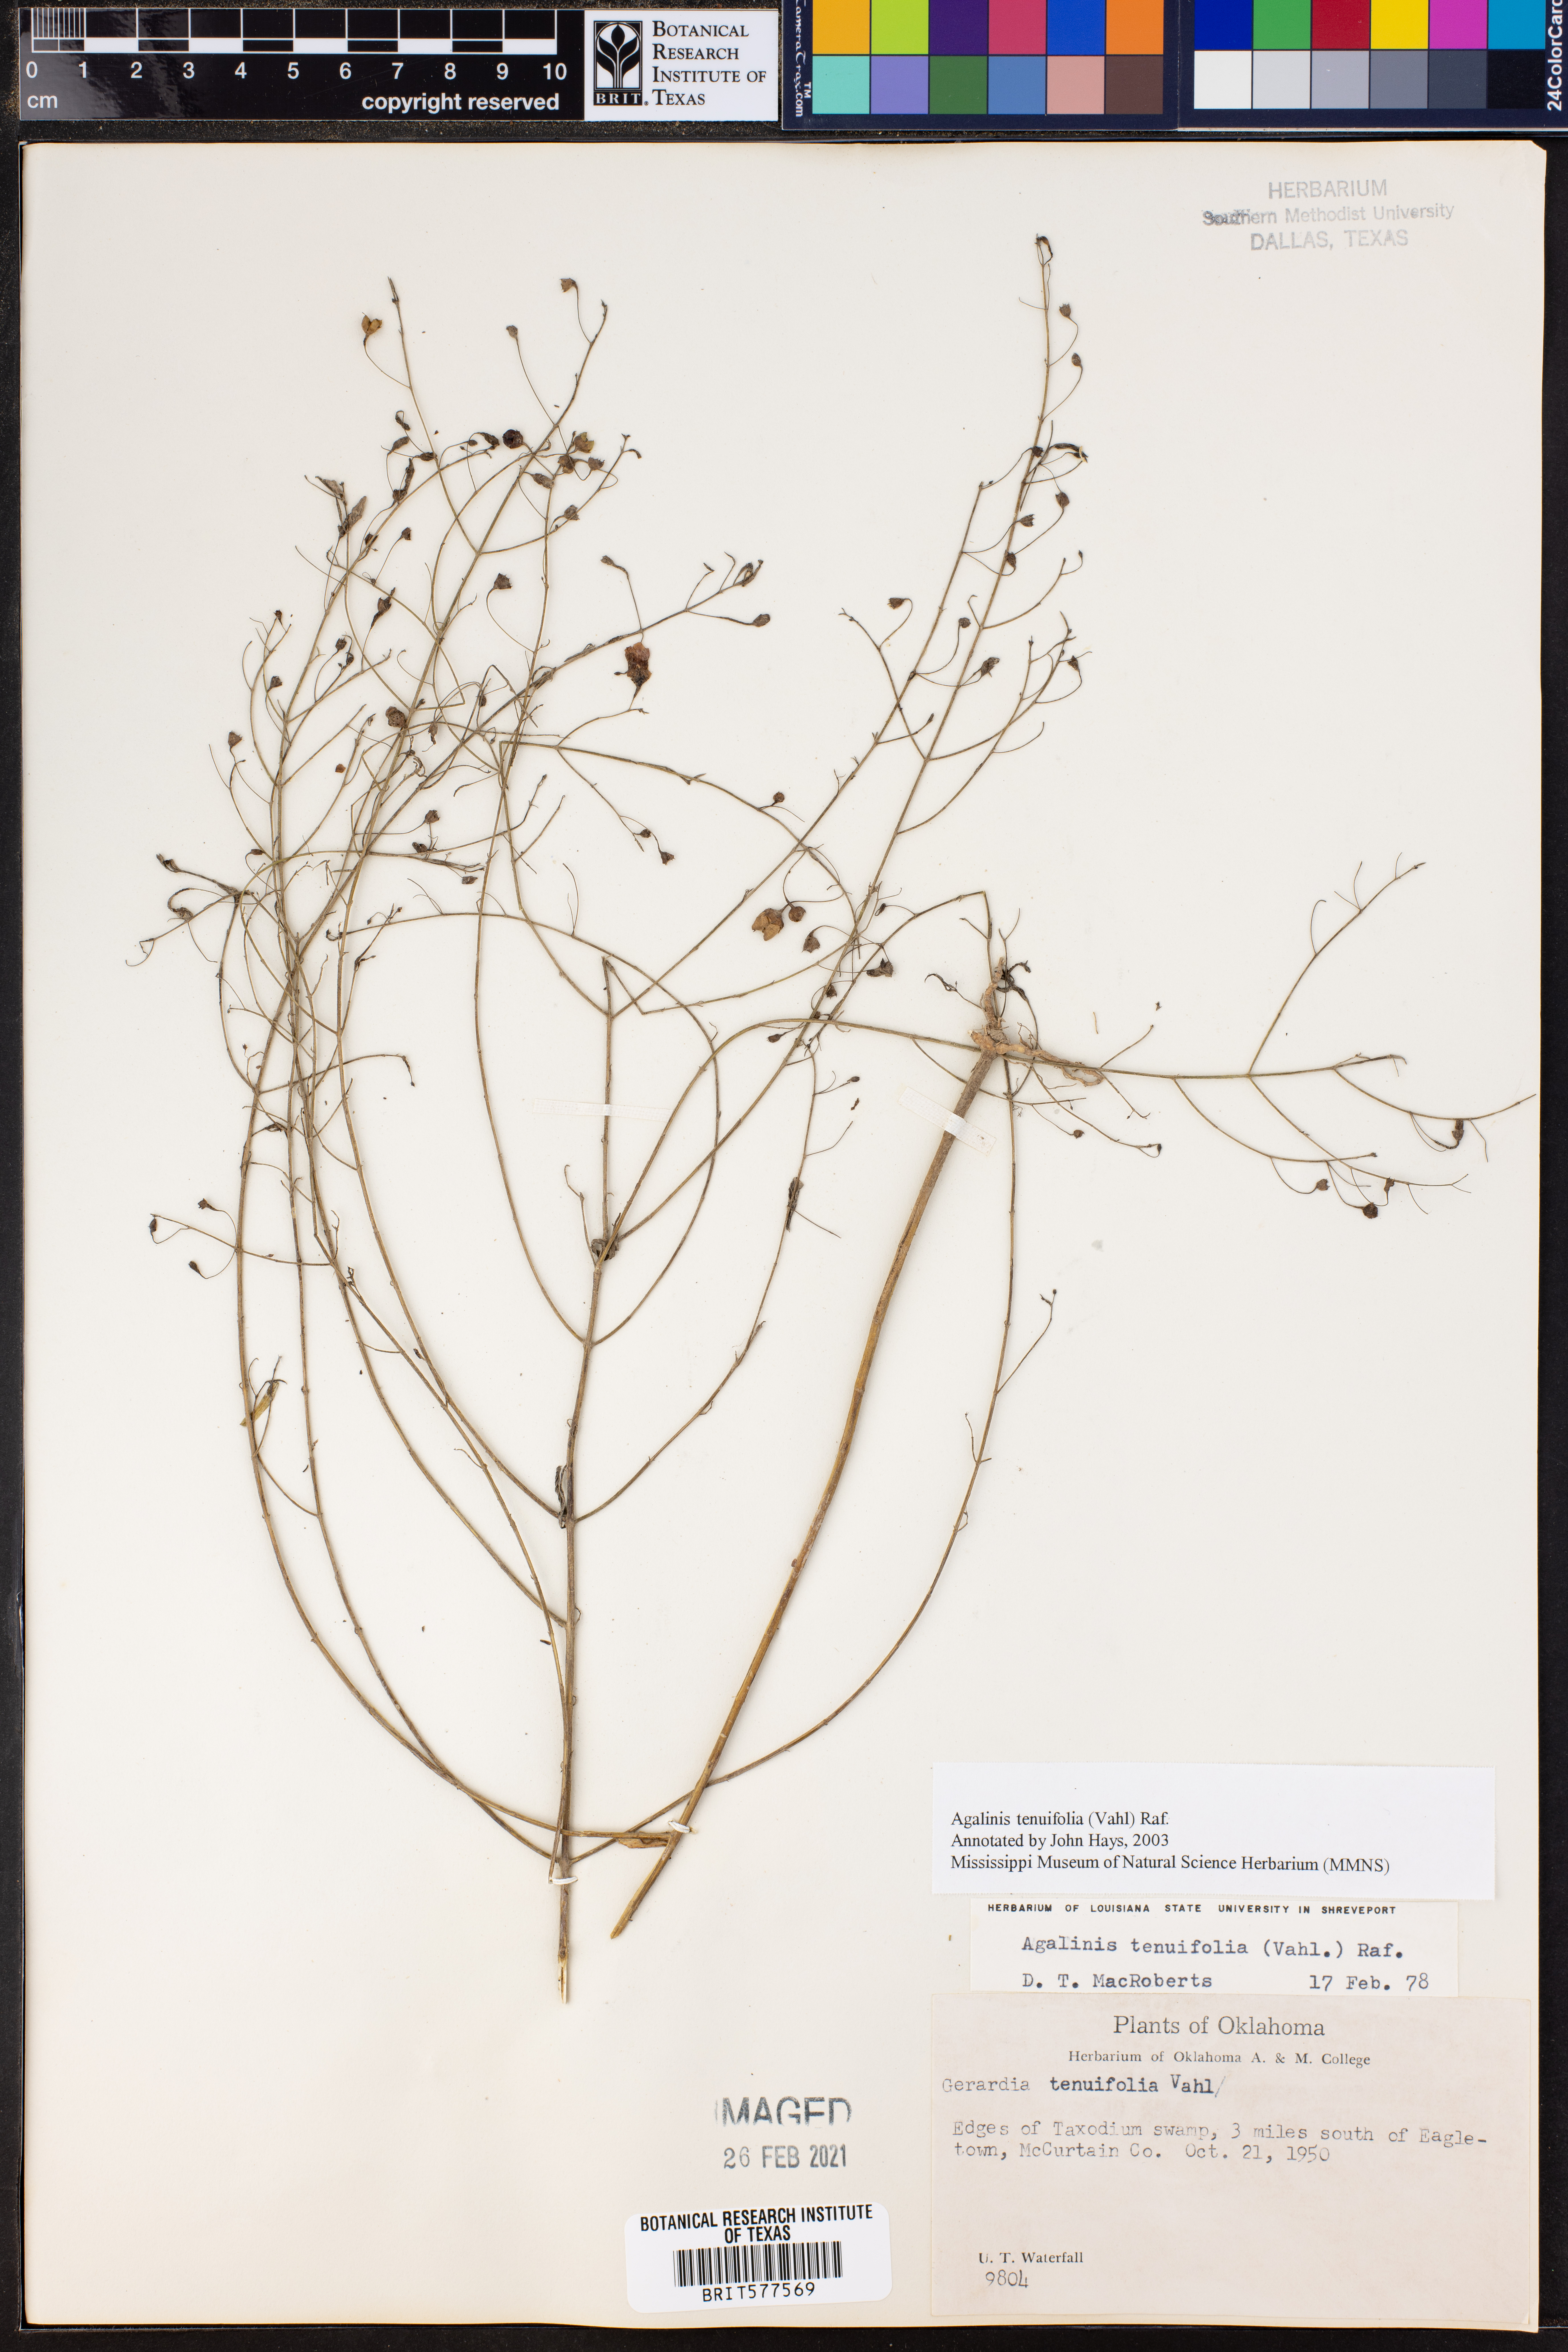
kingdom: Plantae
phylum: Tracheophyta
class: Magnoliopsida
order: Lamiales
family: Orobanchaceae
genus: Agalinis
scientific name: Agalinis tenuifolia
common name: Slender agalinis
